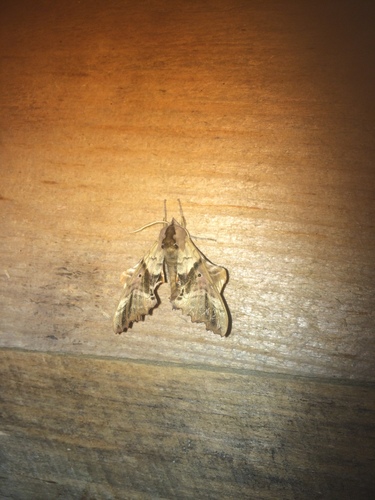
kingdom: Animalia
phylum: Arthropoda
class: Insecta
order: Lepidoptera
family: Sphingidae
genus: Paonias
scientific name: Paonias excaecata
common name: Blind-eyed sphinx
